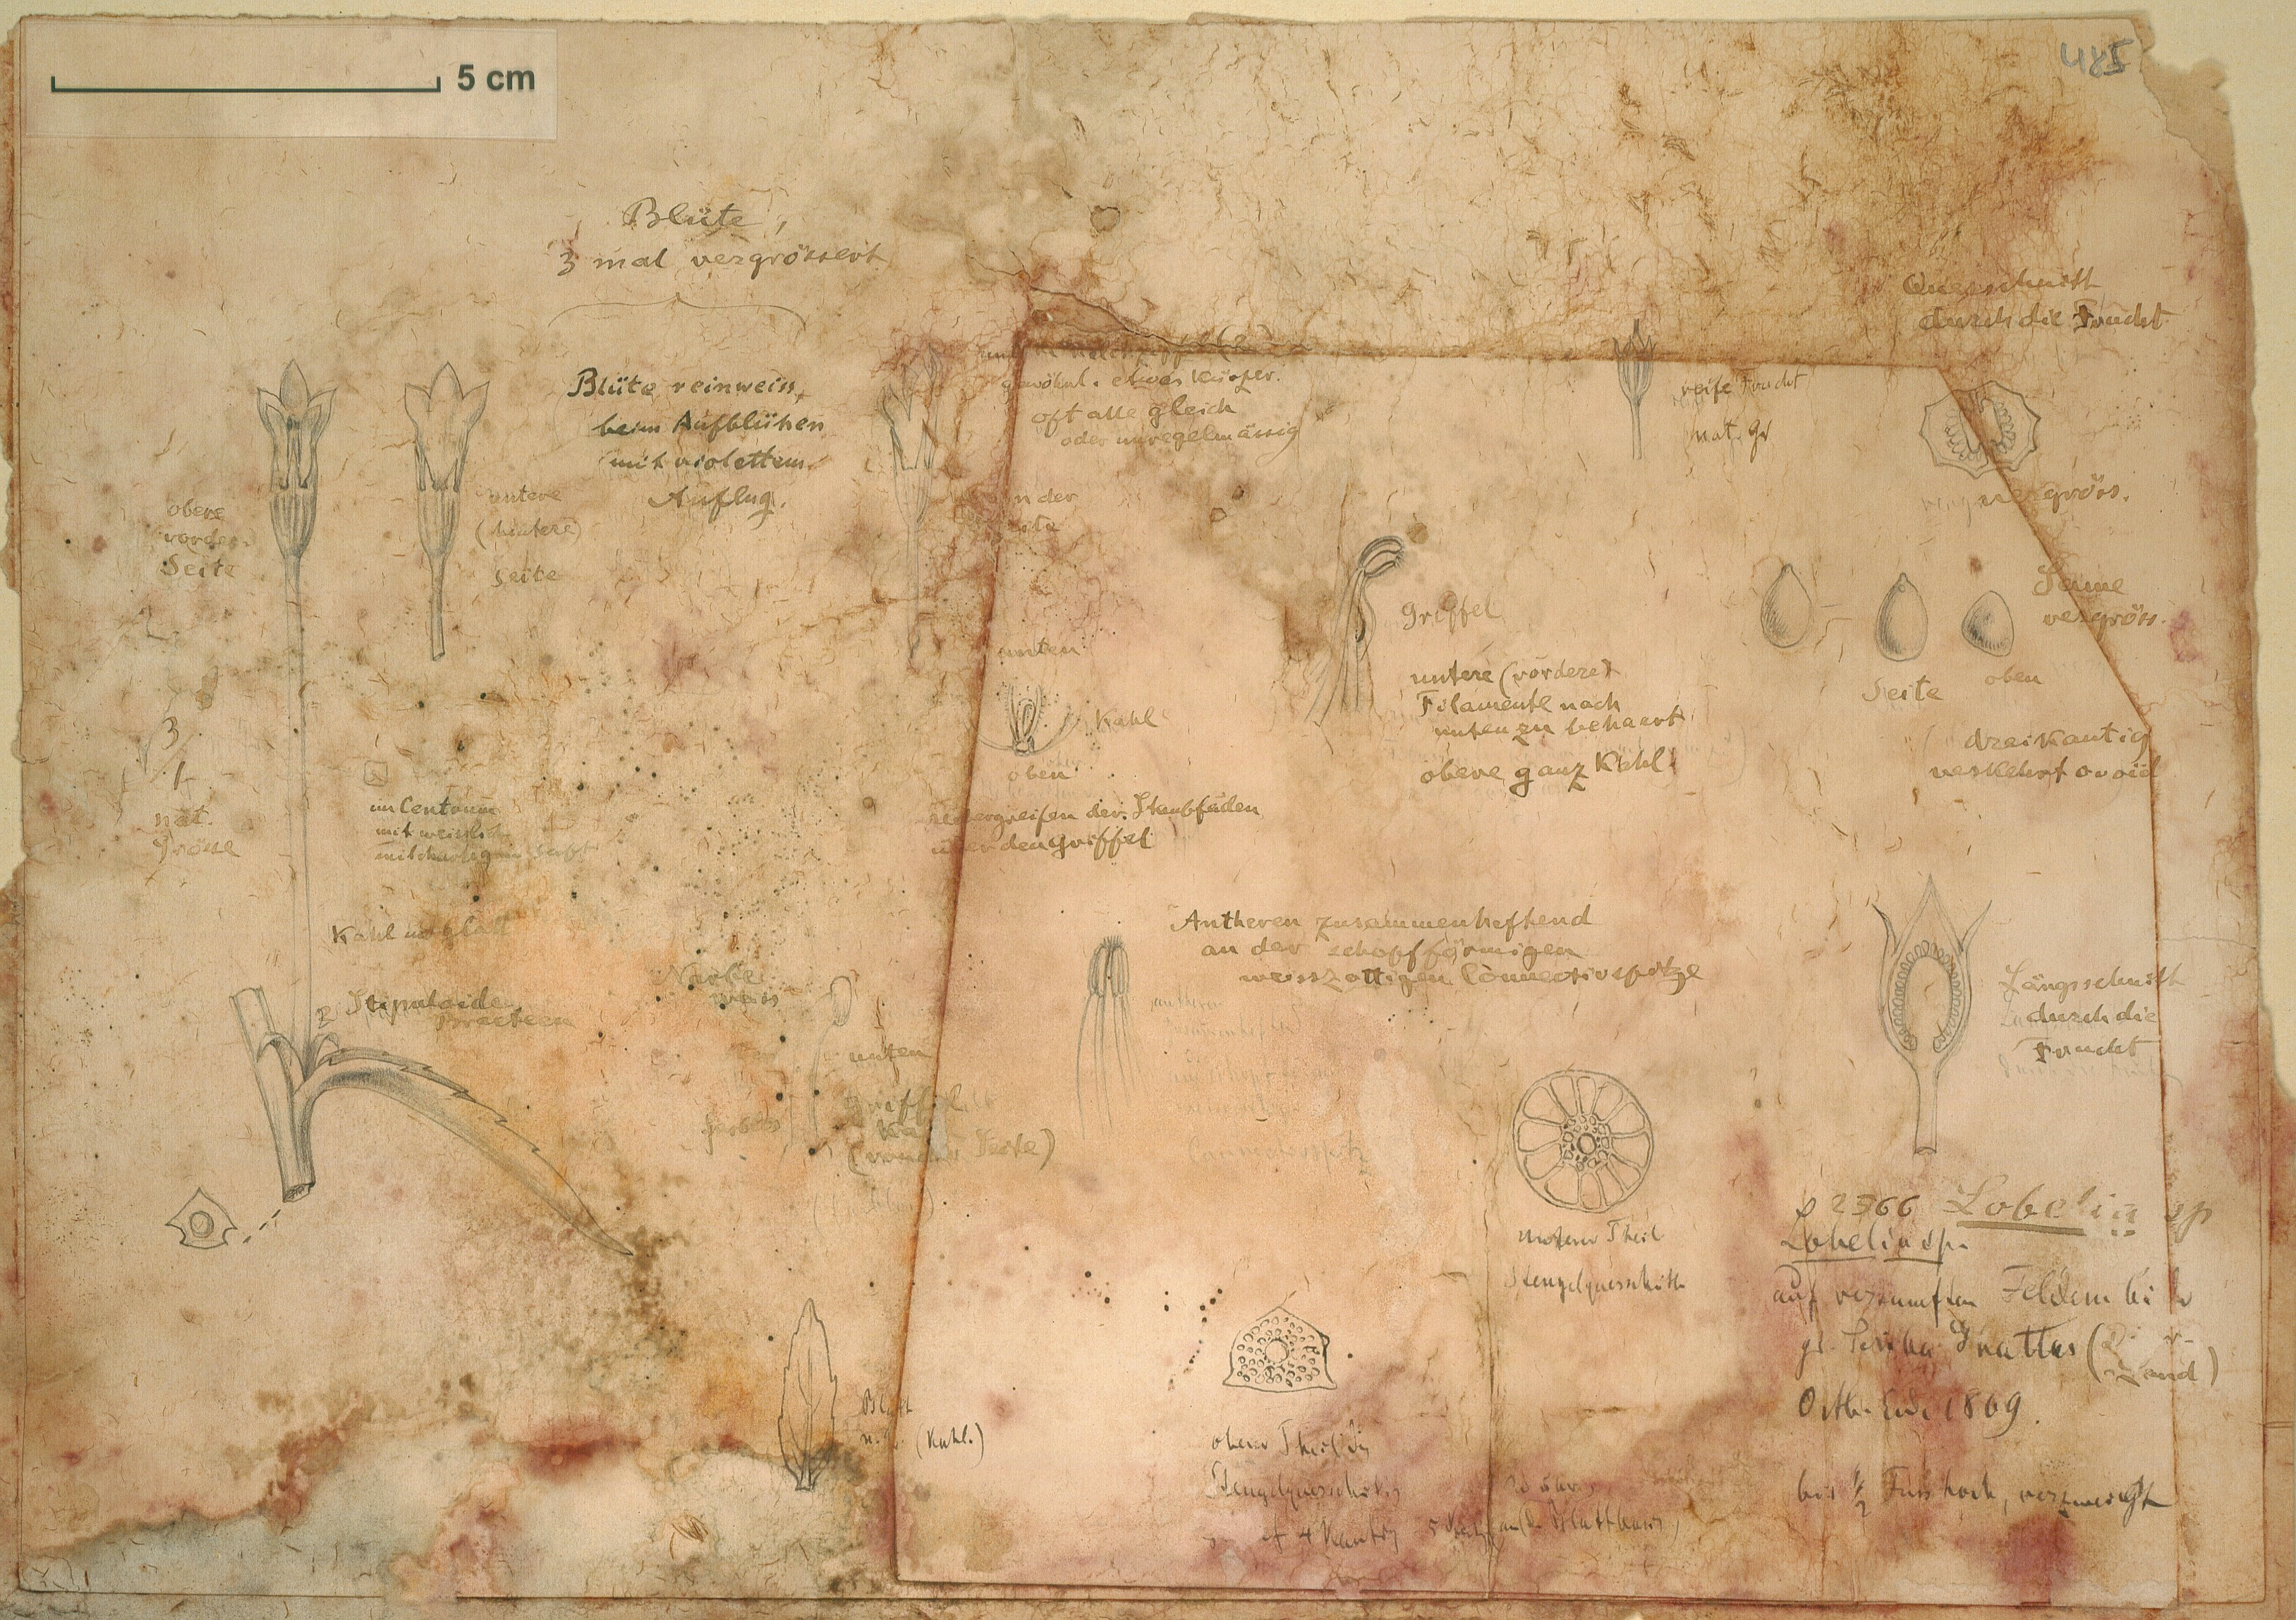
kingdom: Plantae
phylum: Tracheophyta
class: Magnoliopsida
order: Asterales
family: Campanulaceae
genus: Lobelia
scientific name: Lobelia
